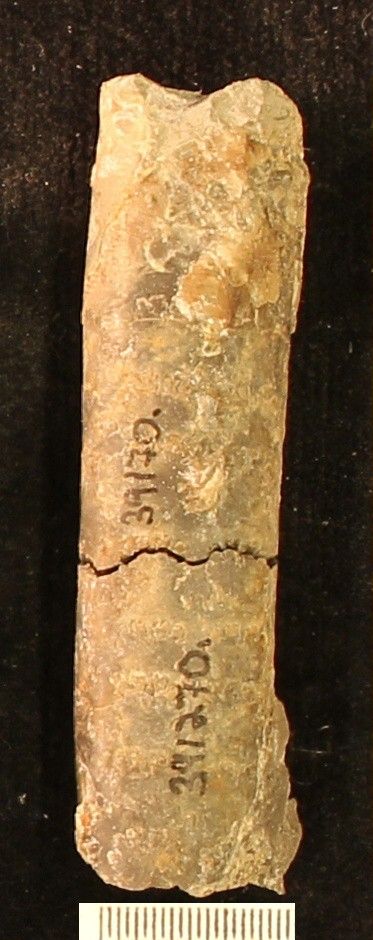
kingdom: Animalia
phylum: Mollusca
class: Cephalopoda
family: Baculitidae
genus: Baculites
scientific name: Baculites
